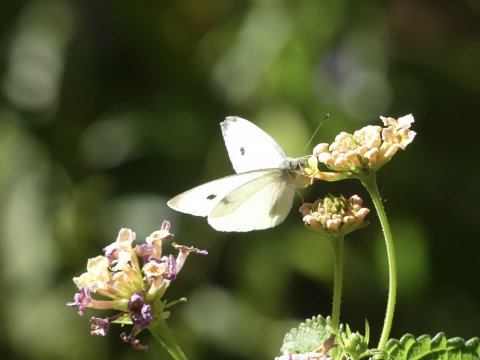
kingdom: Animalia
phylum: Arthropoda
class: Insecta
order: Lepidoptera
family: Pieridae
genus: Pieris
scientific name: Pieris rapae
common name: Cabbage White
